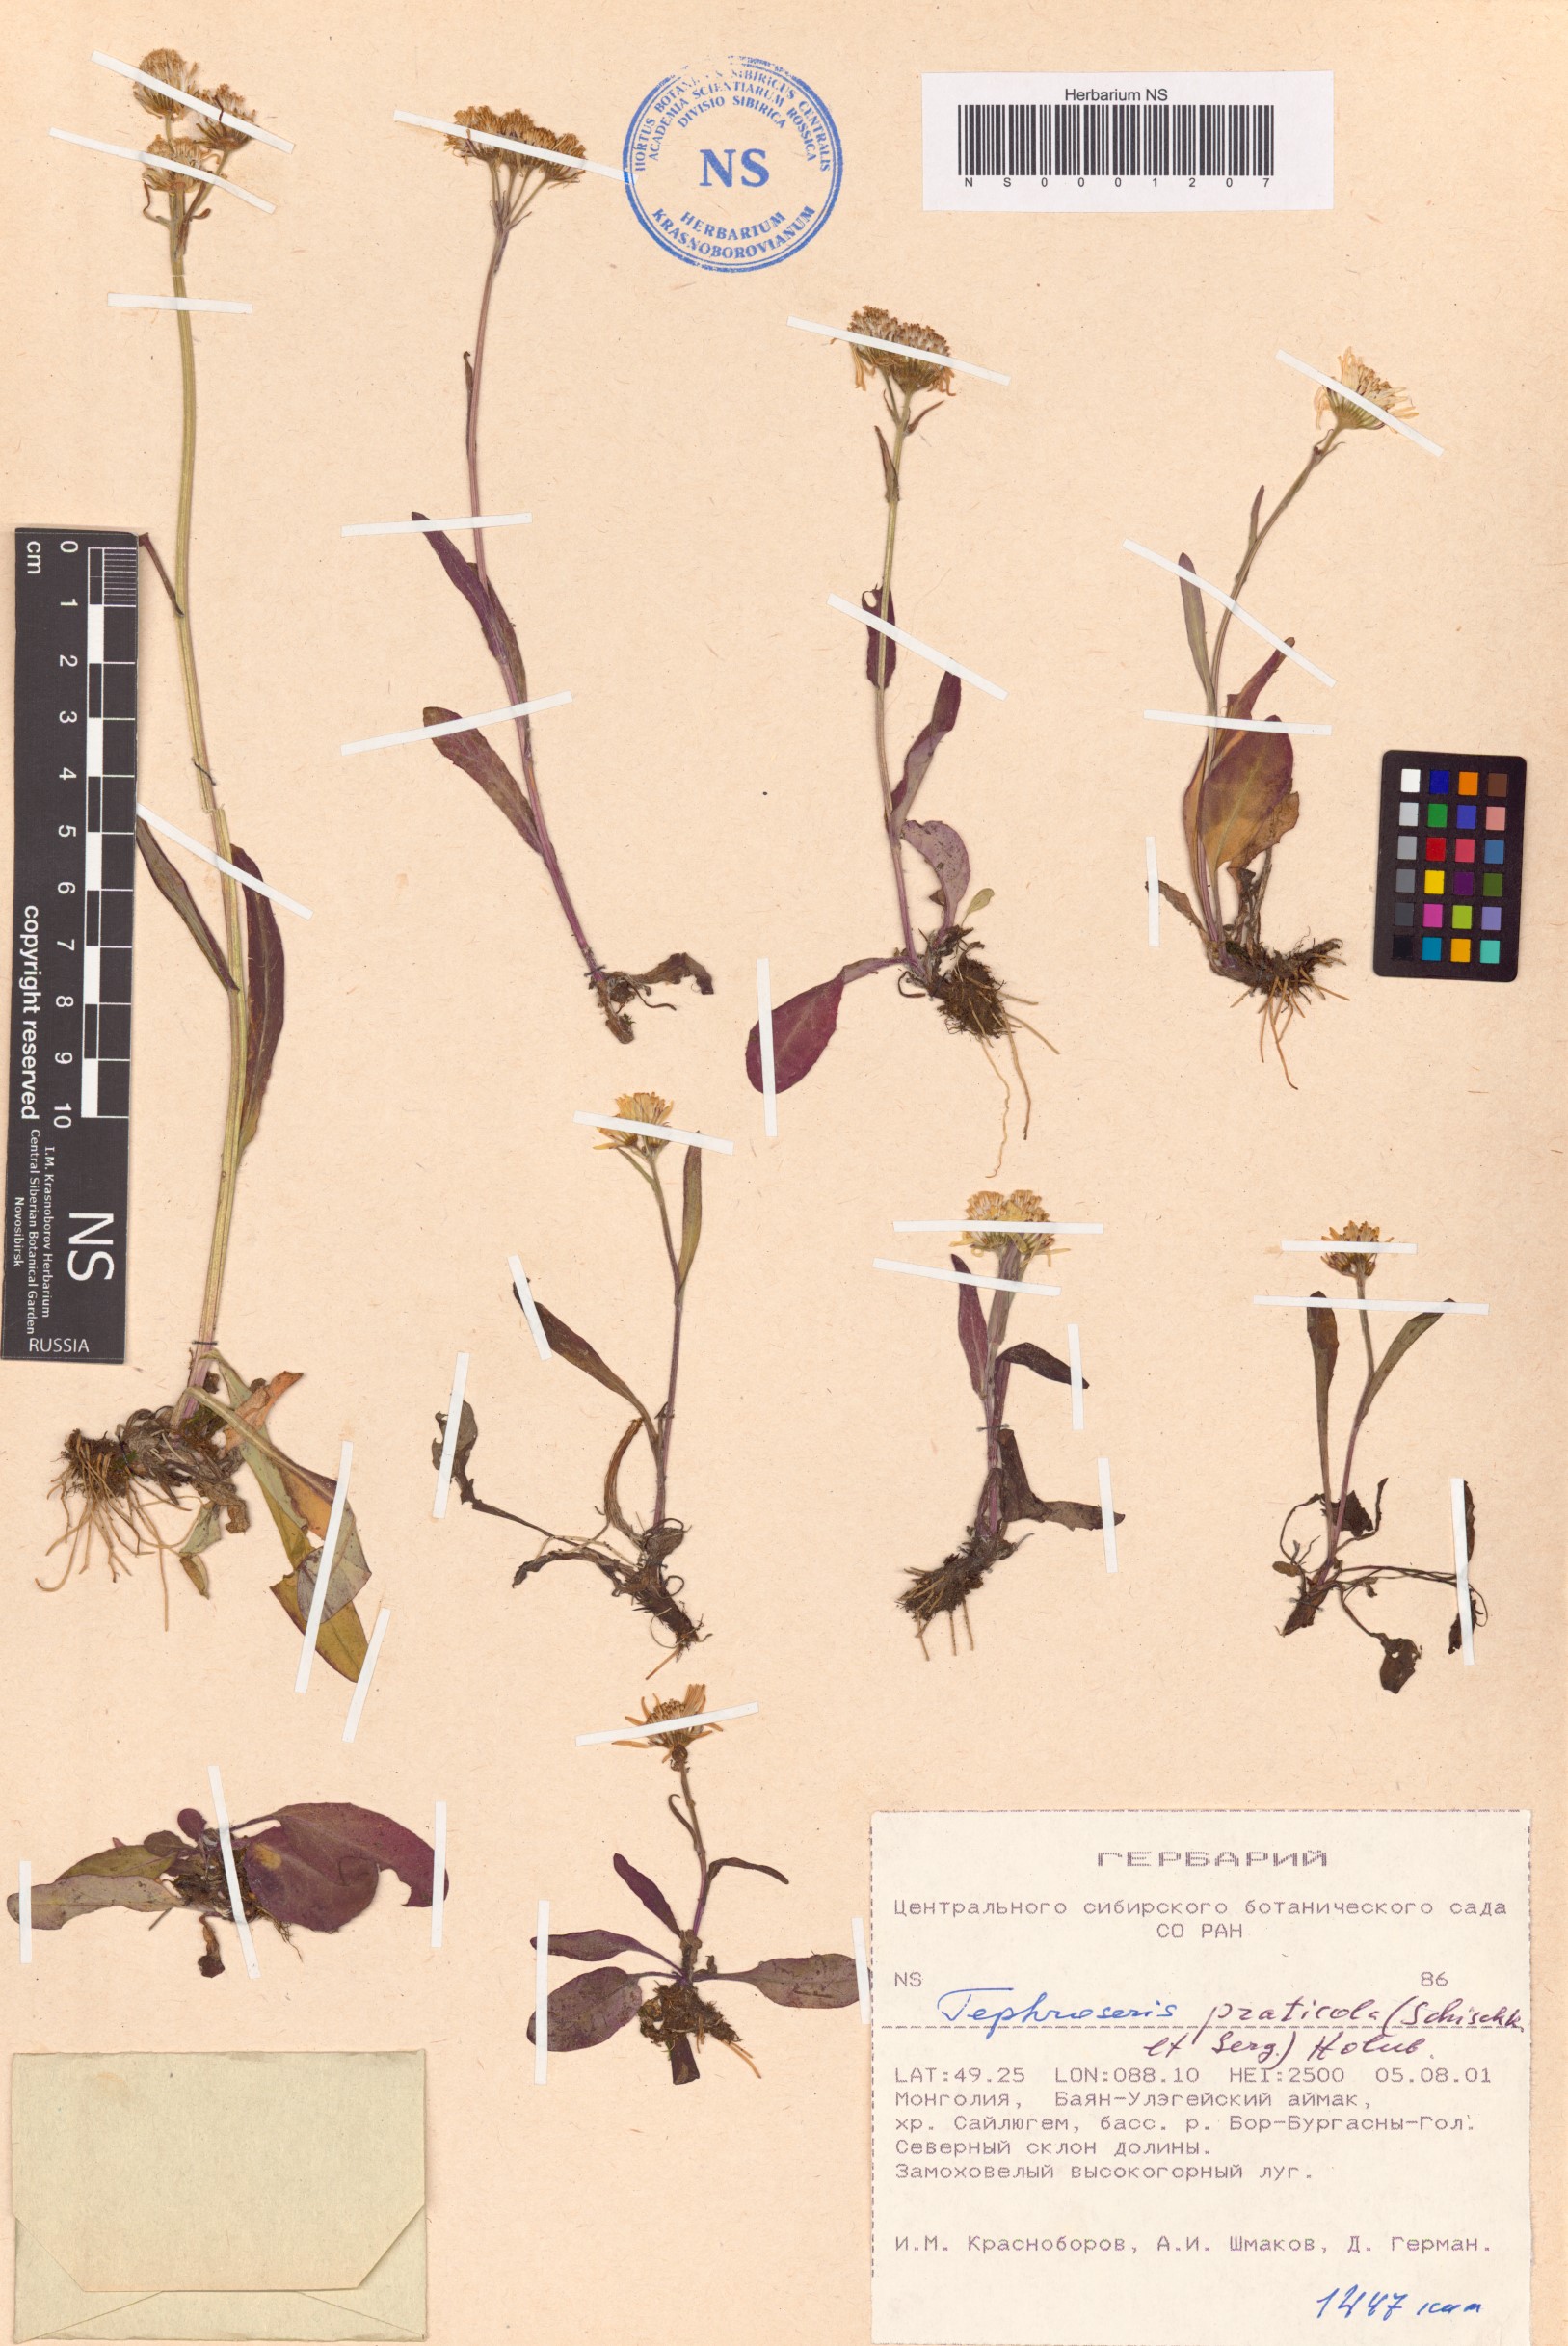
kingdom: Plantae
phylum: Tracheophyta
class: Magnoliopsida
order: Asterales
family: Asteraceae
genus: Tephroseris
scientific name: Tephroseris praticola
